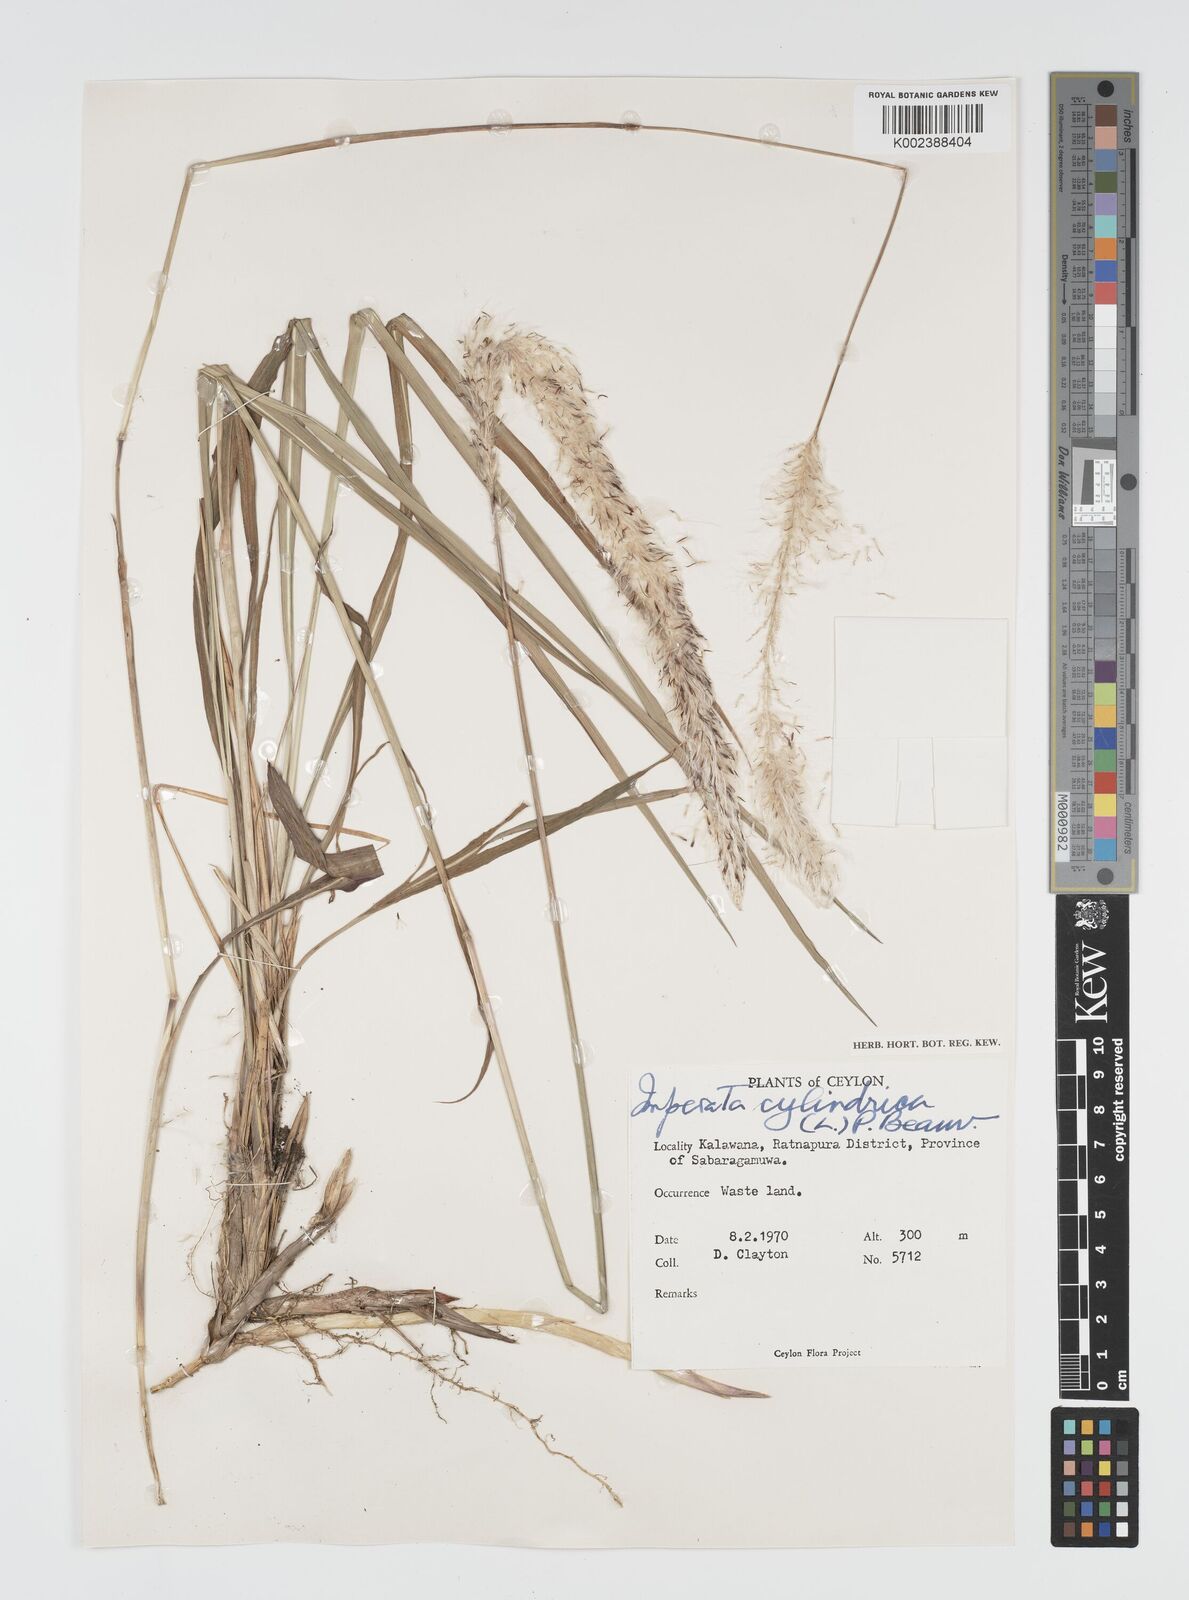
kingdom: Plantae
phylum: Tracheophyta
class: Liliopsida
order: Poales
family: Poaceae
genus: Imperata
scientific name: Imperata cylindrica
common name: Cogongrass
